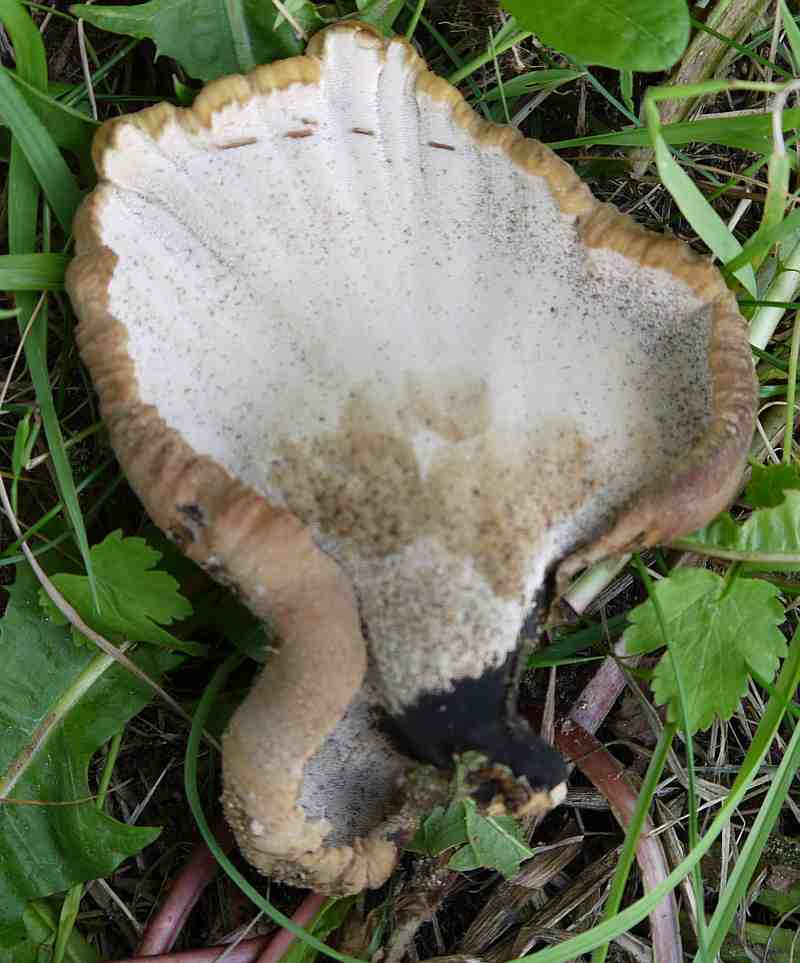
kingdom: Fungi
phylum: Basidiomycota
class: Agaricomycetes
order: Polyporales
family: Polyporaceae
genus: Cerioporus
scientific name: Cerioporus varius
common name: foranderlig stilkporesvamp
